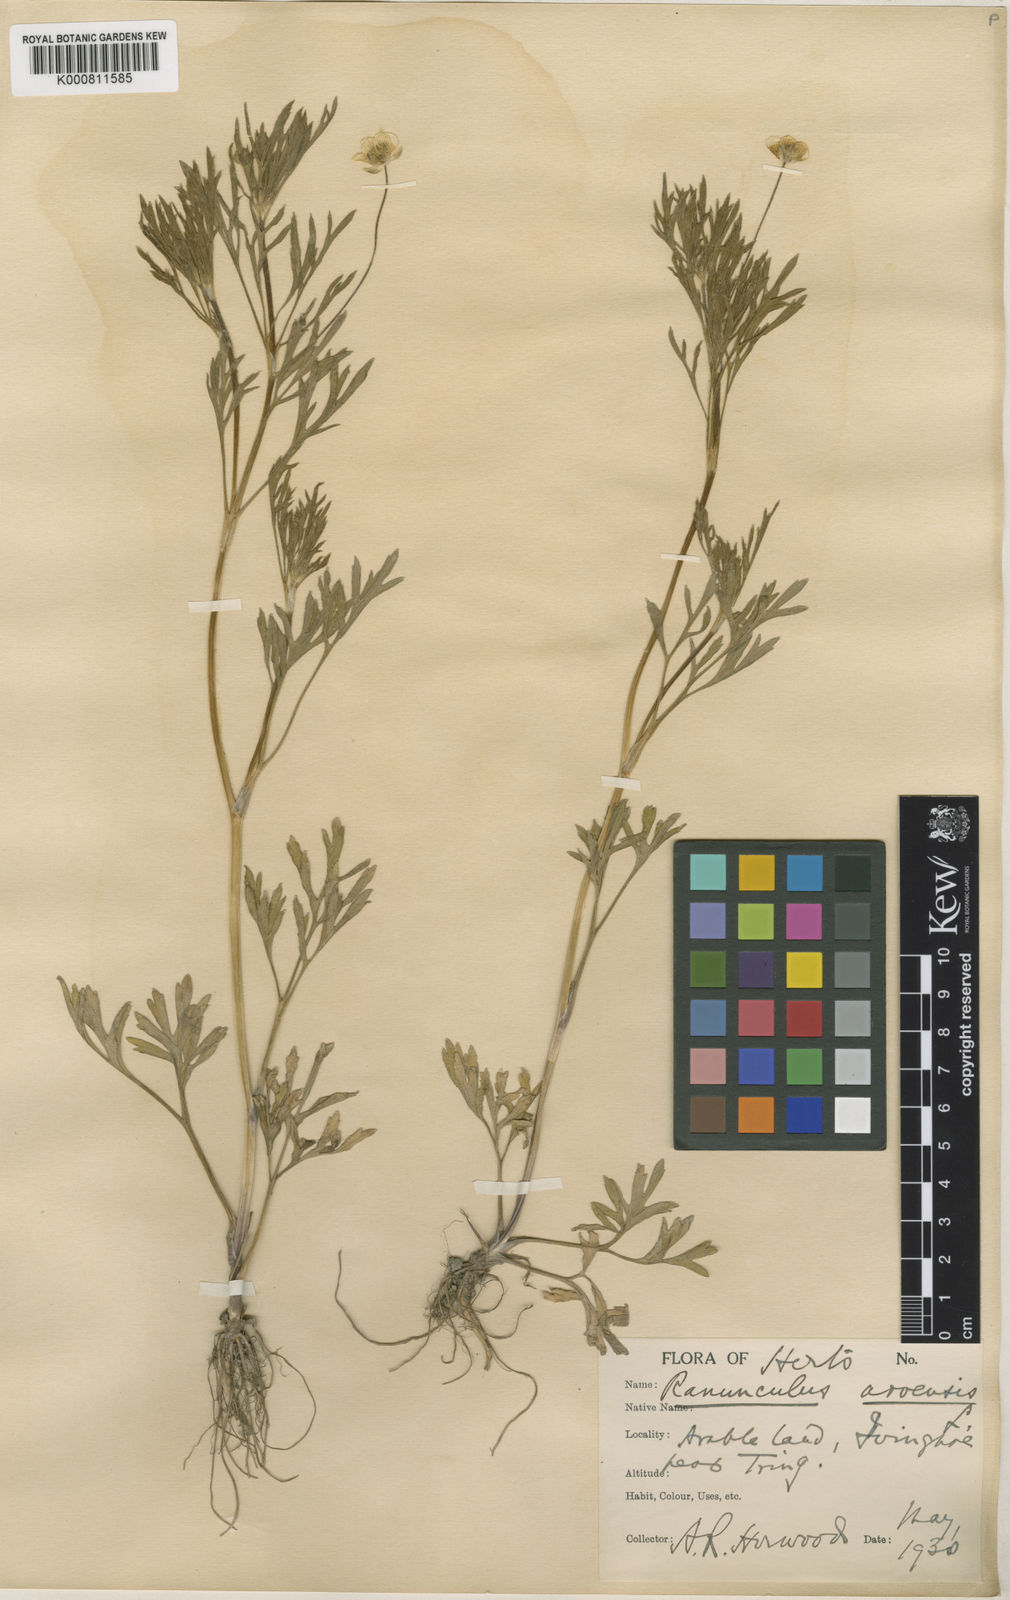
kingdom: Plantae
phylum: Tracheophyta
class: Magnoliopsida
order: Ranunculales
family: Ranunculaceae
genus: Ranunculus
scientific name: Ranunculus arvensis
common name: Corn buttercup
